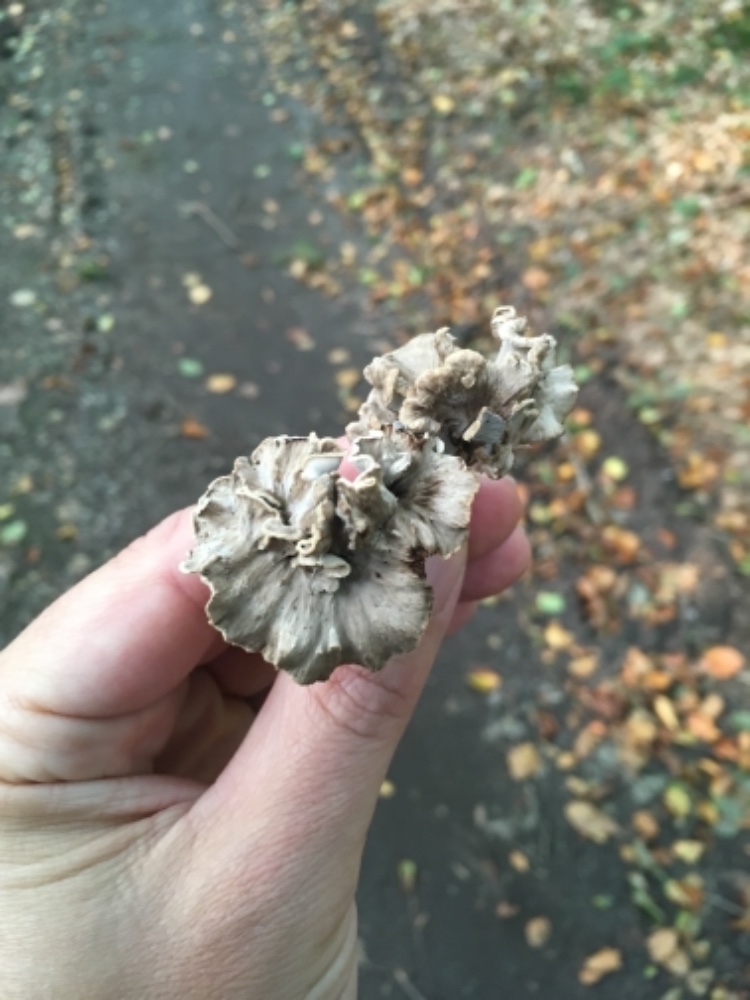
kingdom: Fungi
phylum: Basidiomycota
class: Agaricomycetes
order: Cantharellales
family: Hydnaceae
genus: Craterellus
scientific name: Craterellus undulatus
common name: liden kantarel
